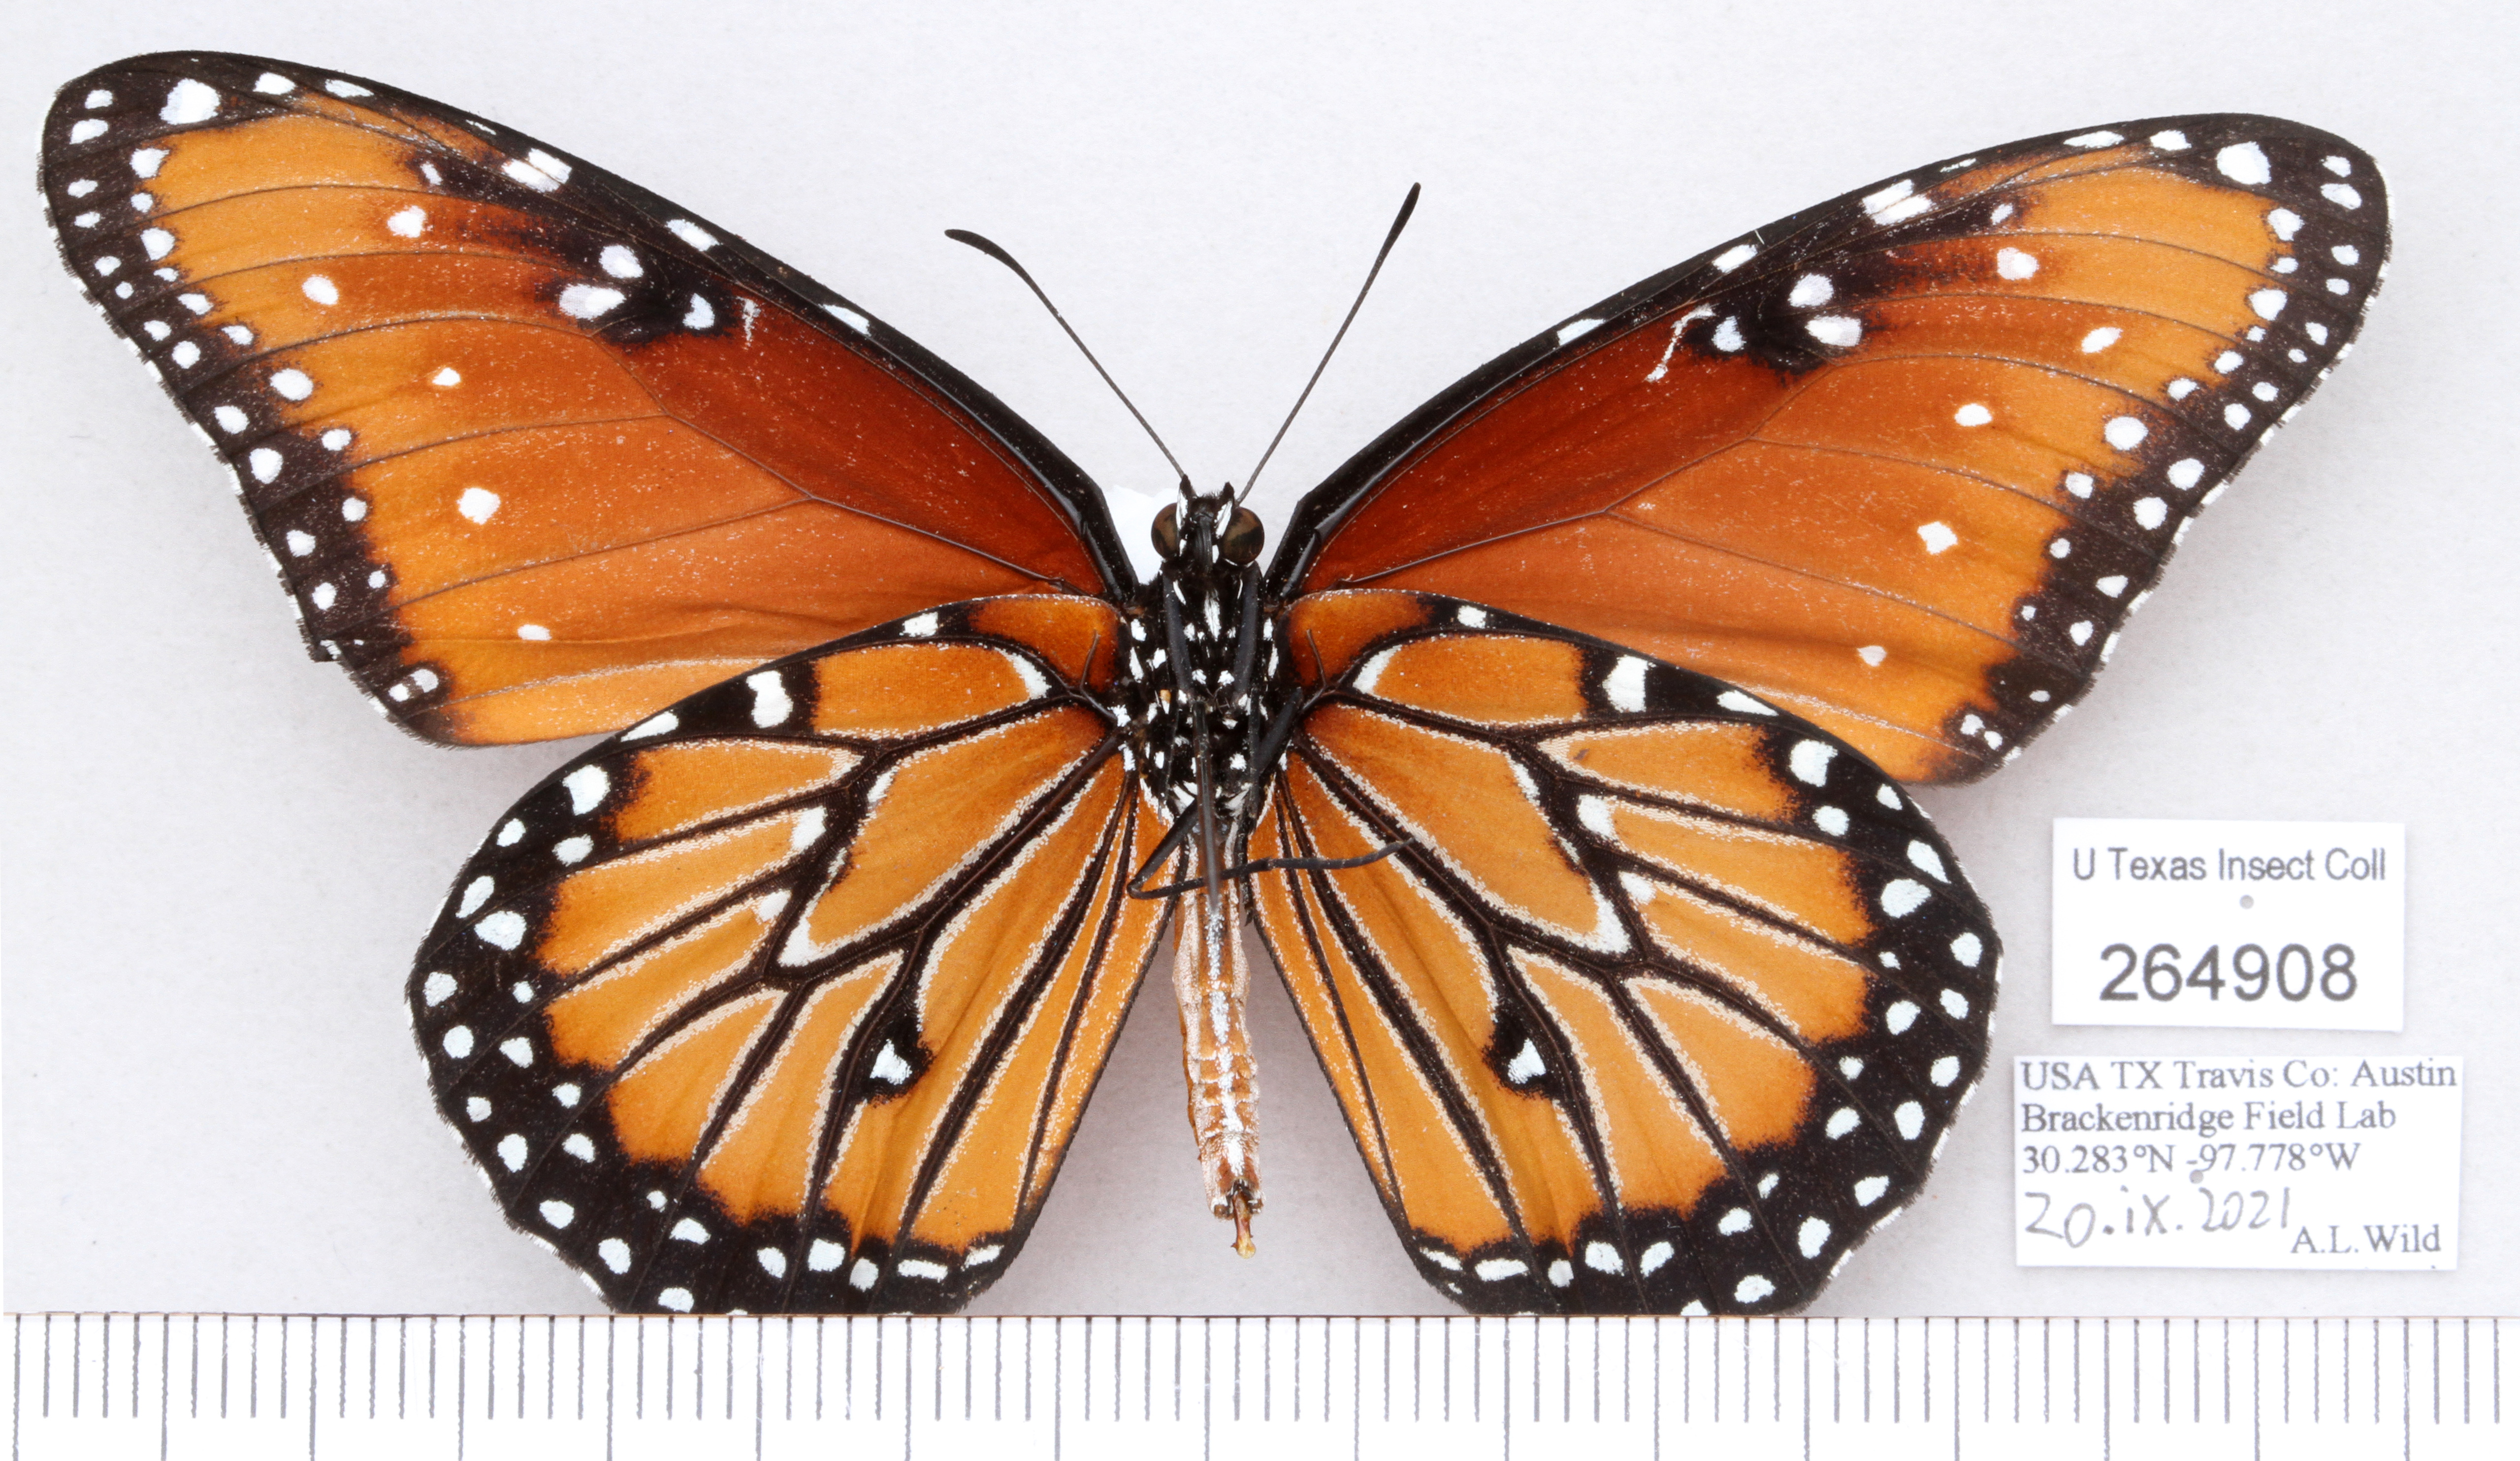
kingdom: Animalia
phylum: Arthropoda
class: Insecta
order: Lepidoptera
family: Nymphalidae
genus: Danaus
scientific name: Danaus gilippus
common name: Queen
